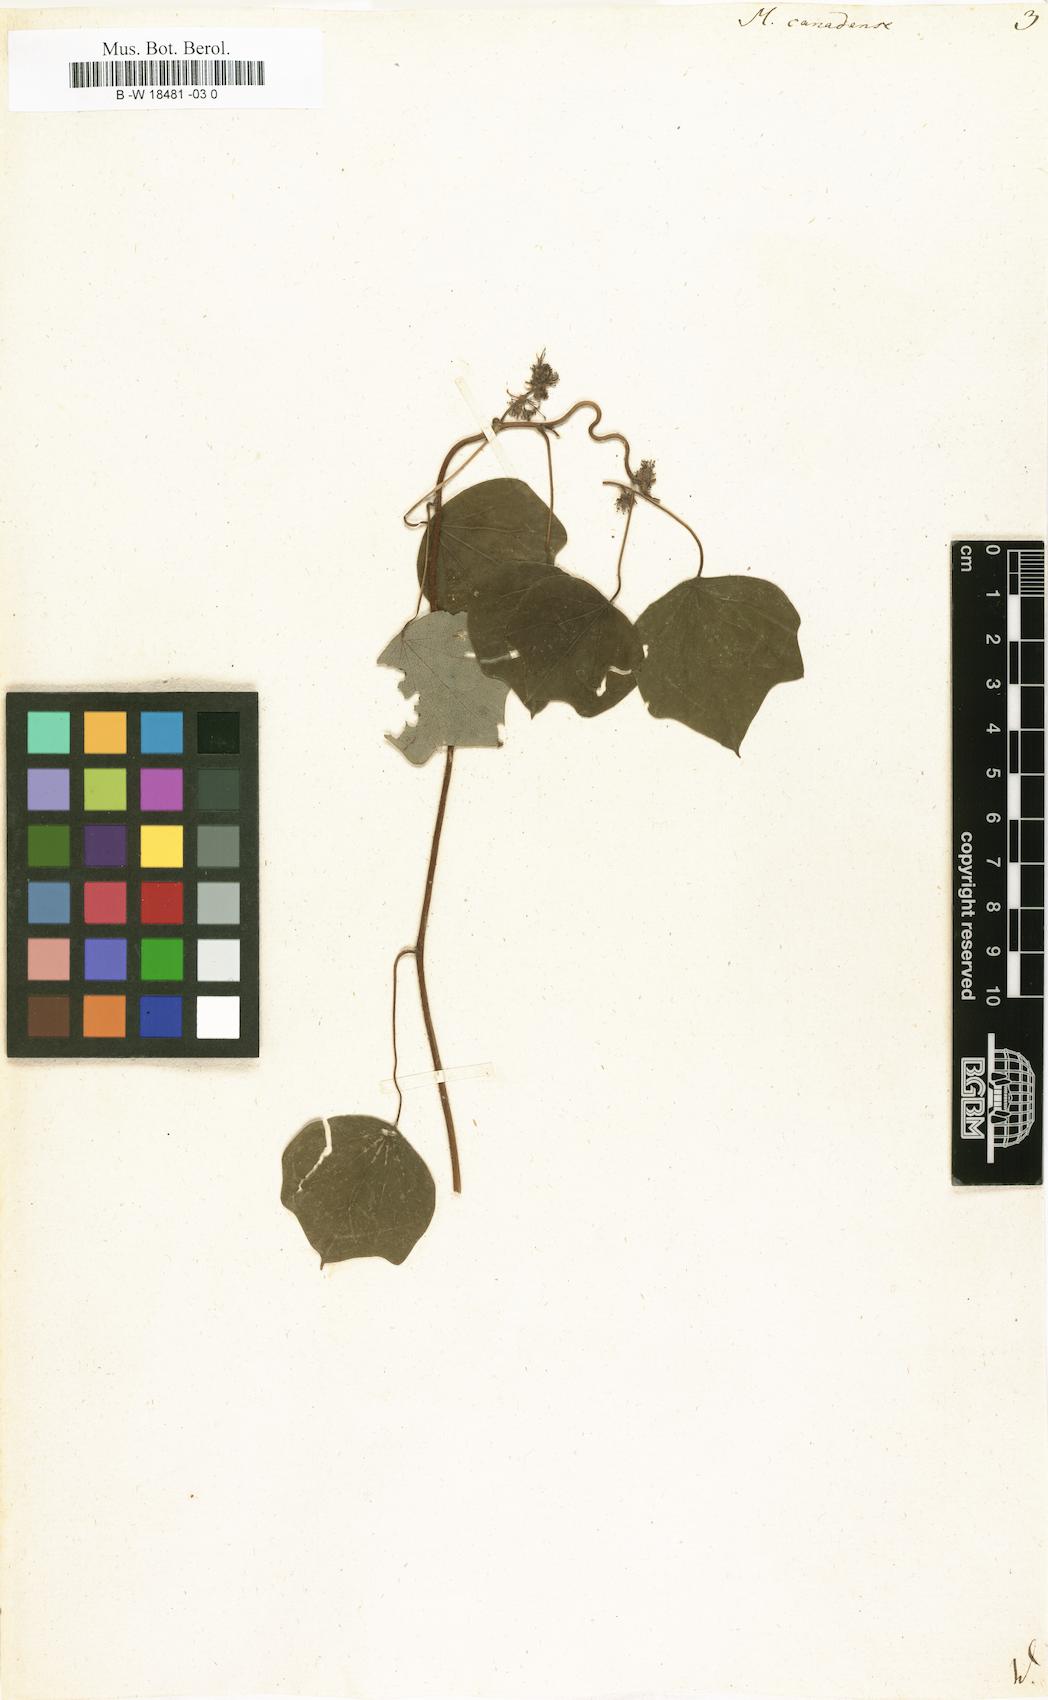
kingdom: Plantae
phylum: Tracheophyta
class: Magnoliopsida
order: Ranunculales
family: Menispermaceae
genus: Menispermum
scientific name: Menispermum canadense
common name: Moonseed
